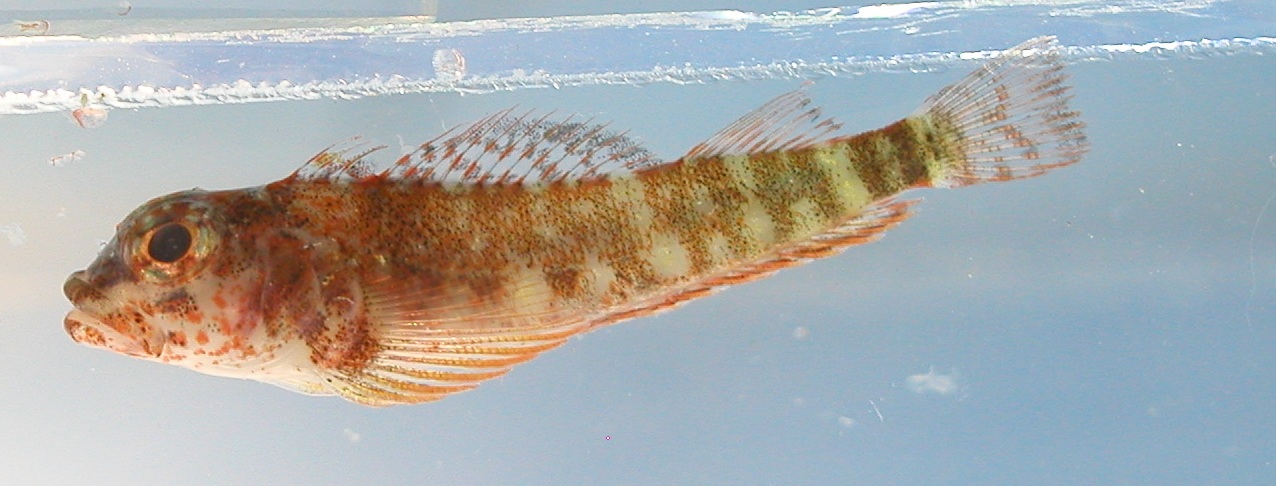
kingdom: Animalia
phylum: Chordata
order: Perciformes
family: Tripterygiidae
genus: Helcogramma
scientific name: Helcogramma alkamr
